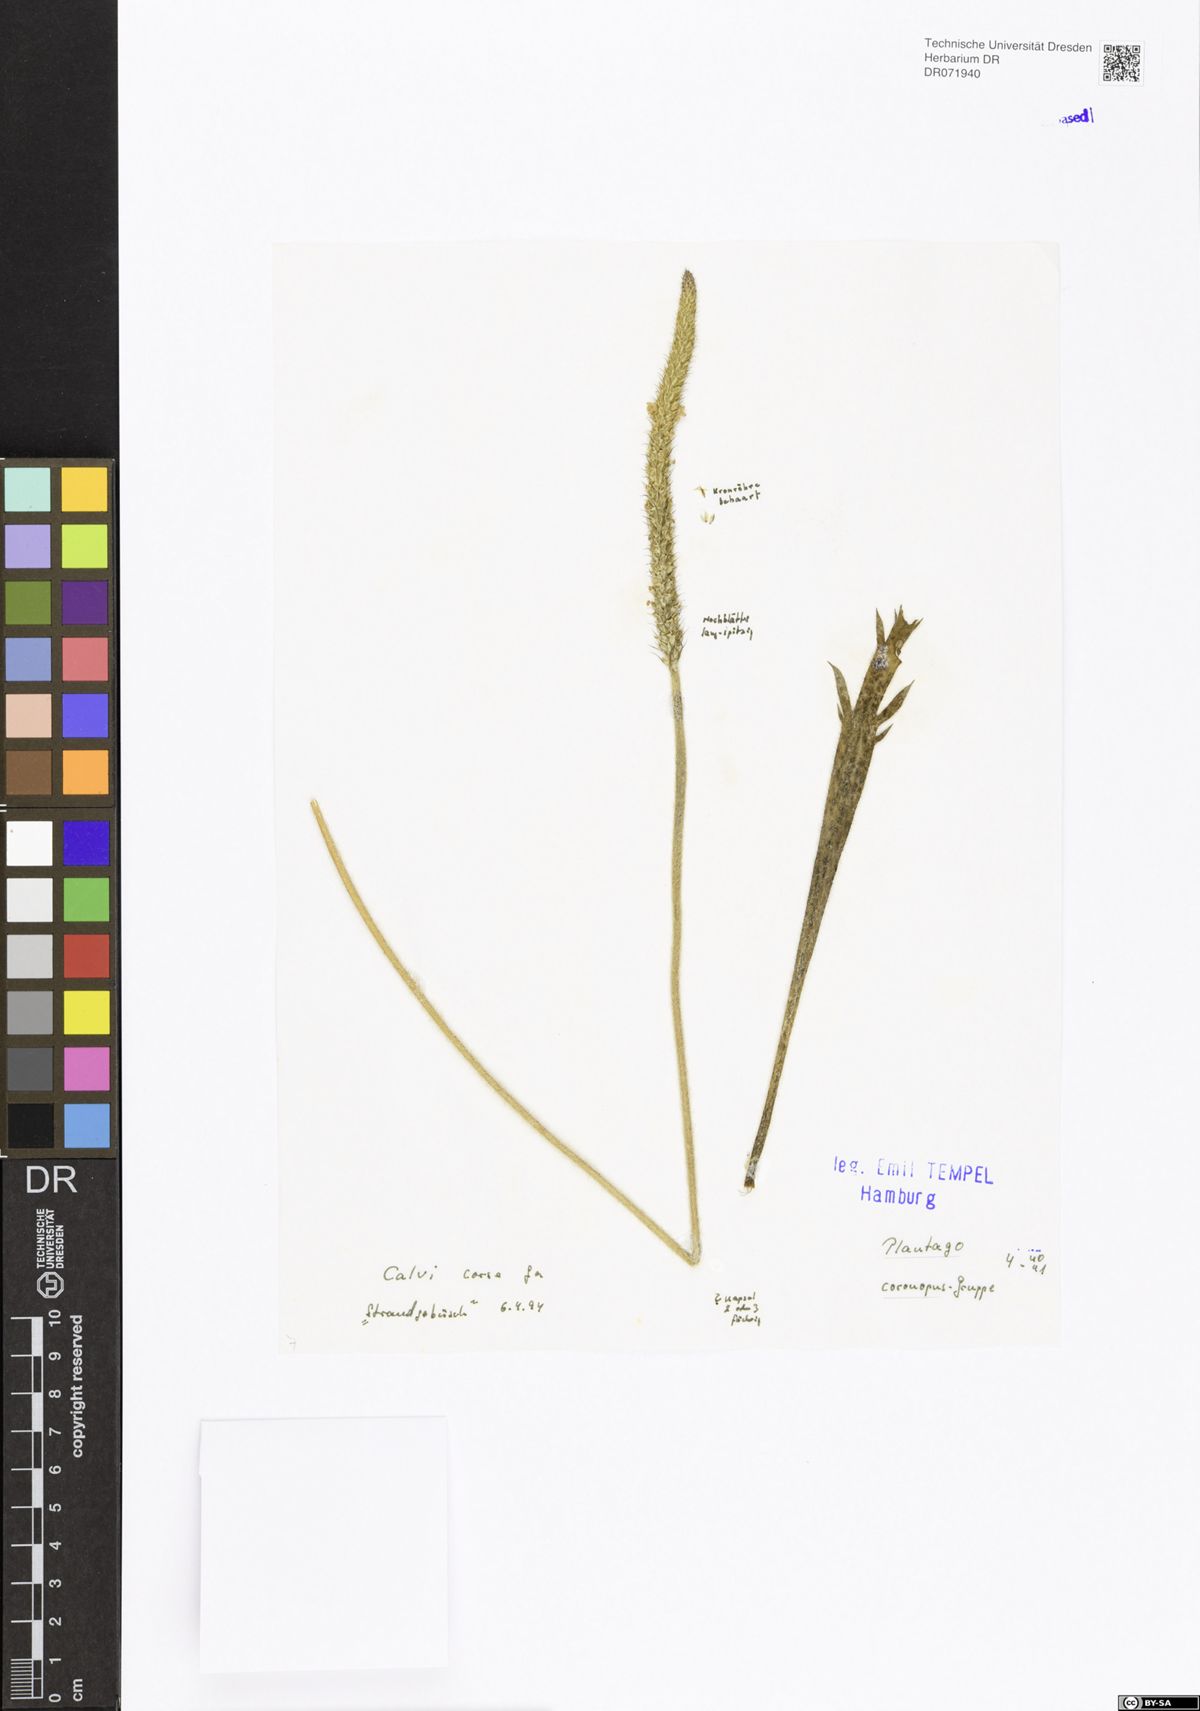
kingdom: Plantae
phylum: Tracheophyta
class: Magnoliopsida
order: Lamiales
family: Plantaginaceae
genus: Plantago
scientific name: Plantago coronopus
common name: Buck's-horn plantain
